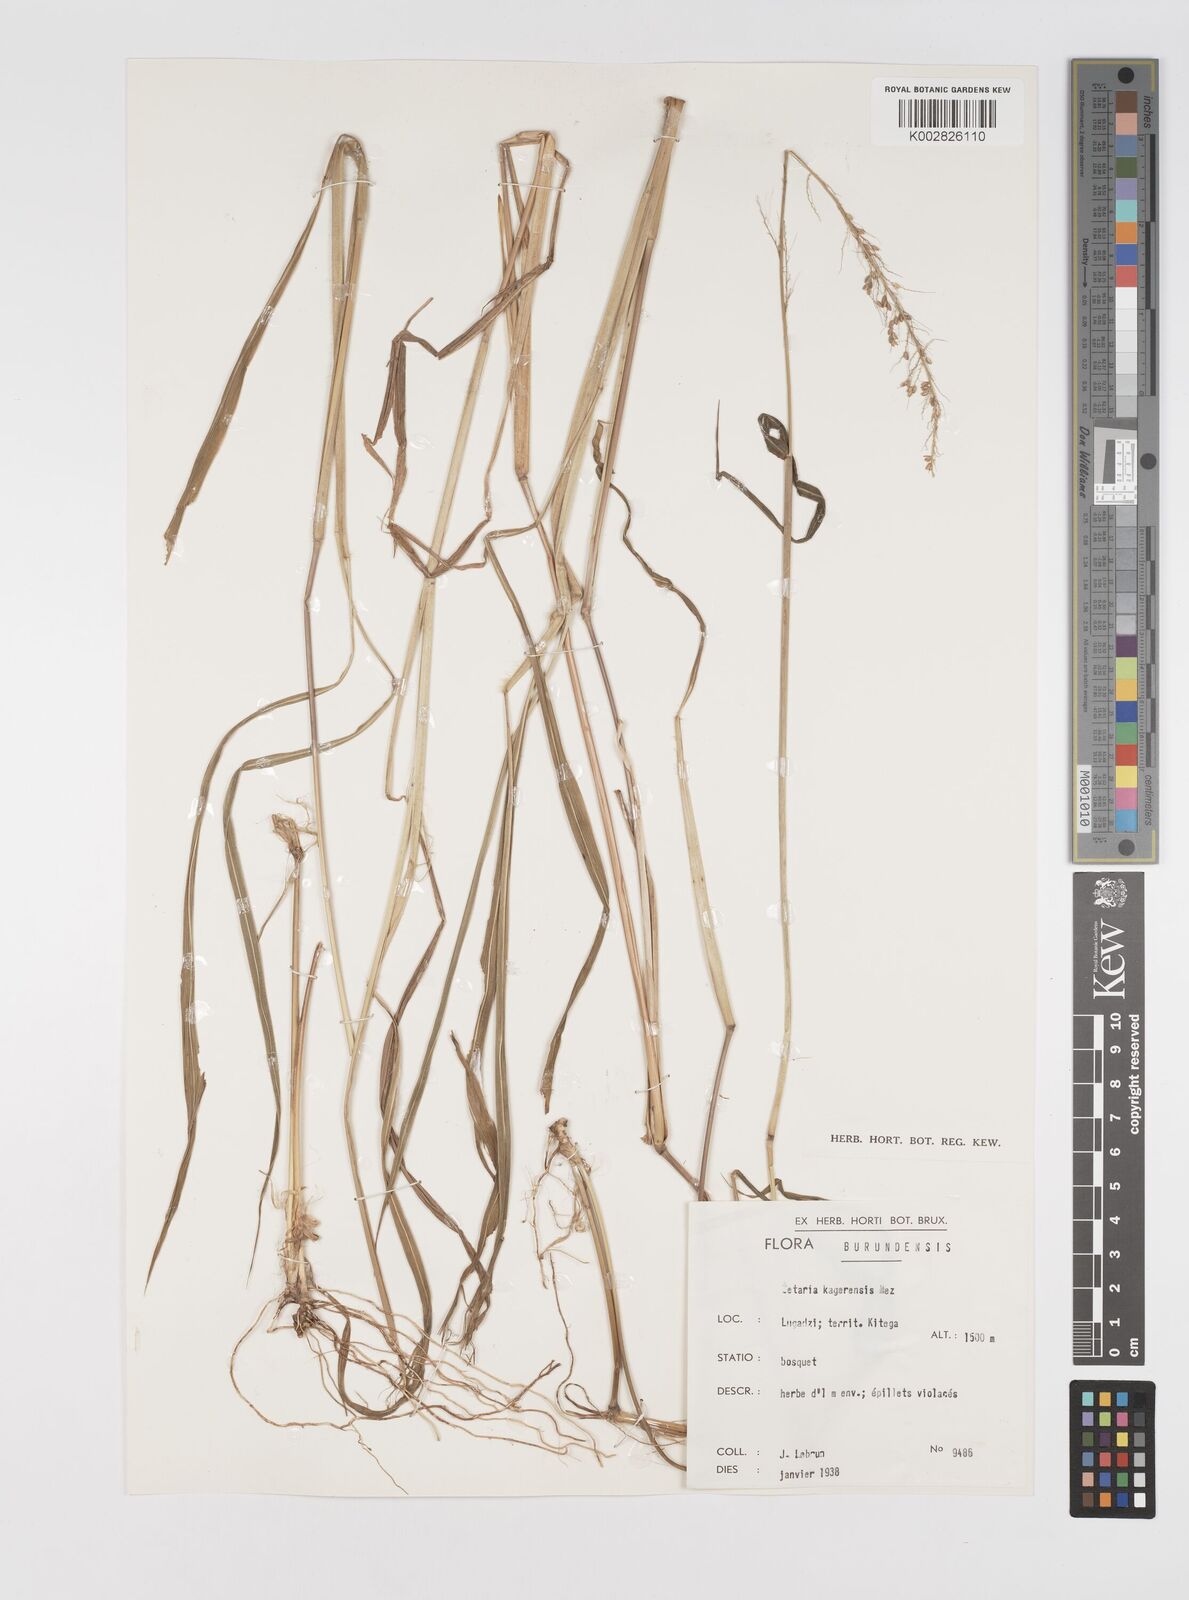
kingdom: Plantae
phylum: Tracheophyta
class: Liliopsida
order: Poales
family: Poaceae
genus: Setaria
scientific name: Setaria kagerensis
